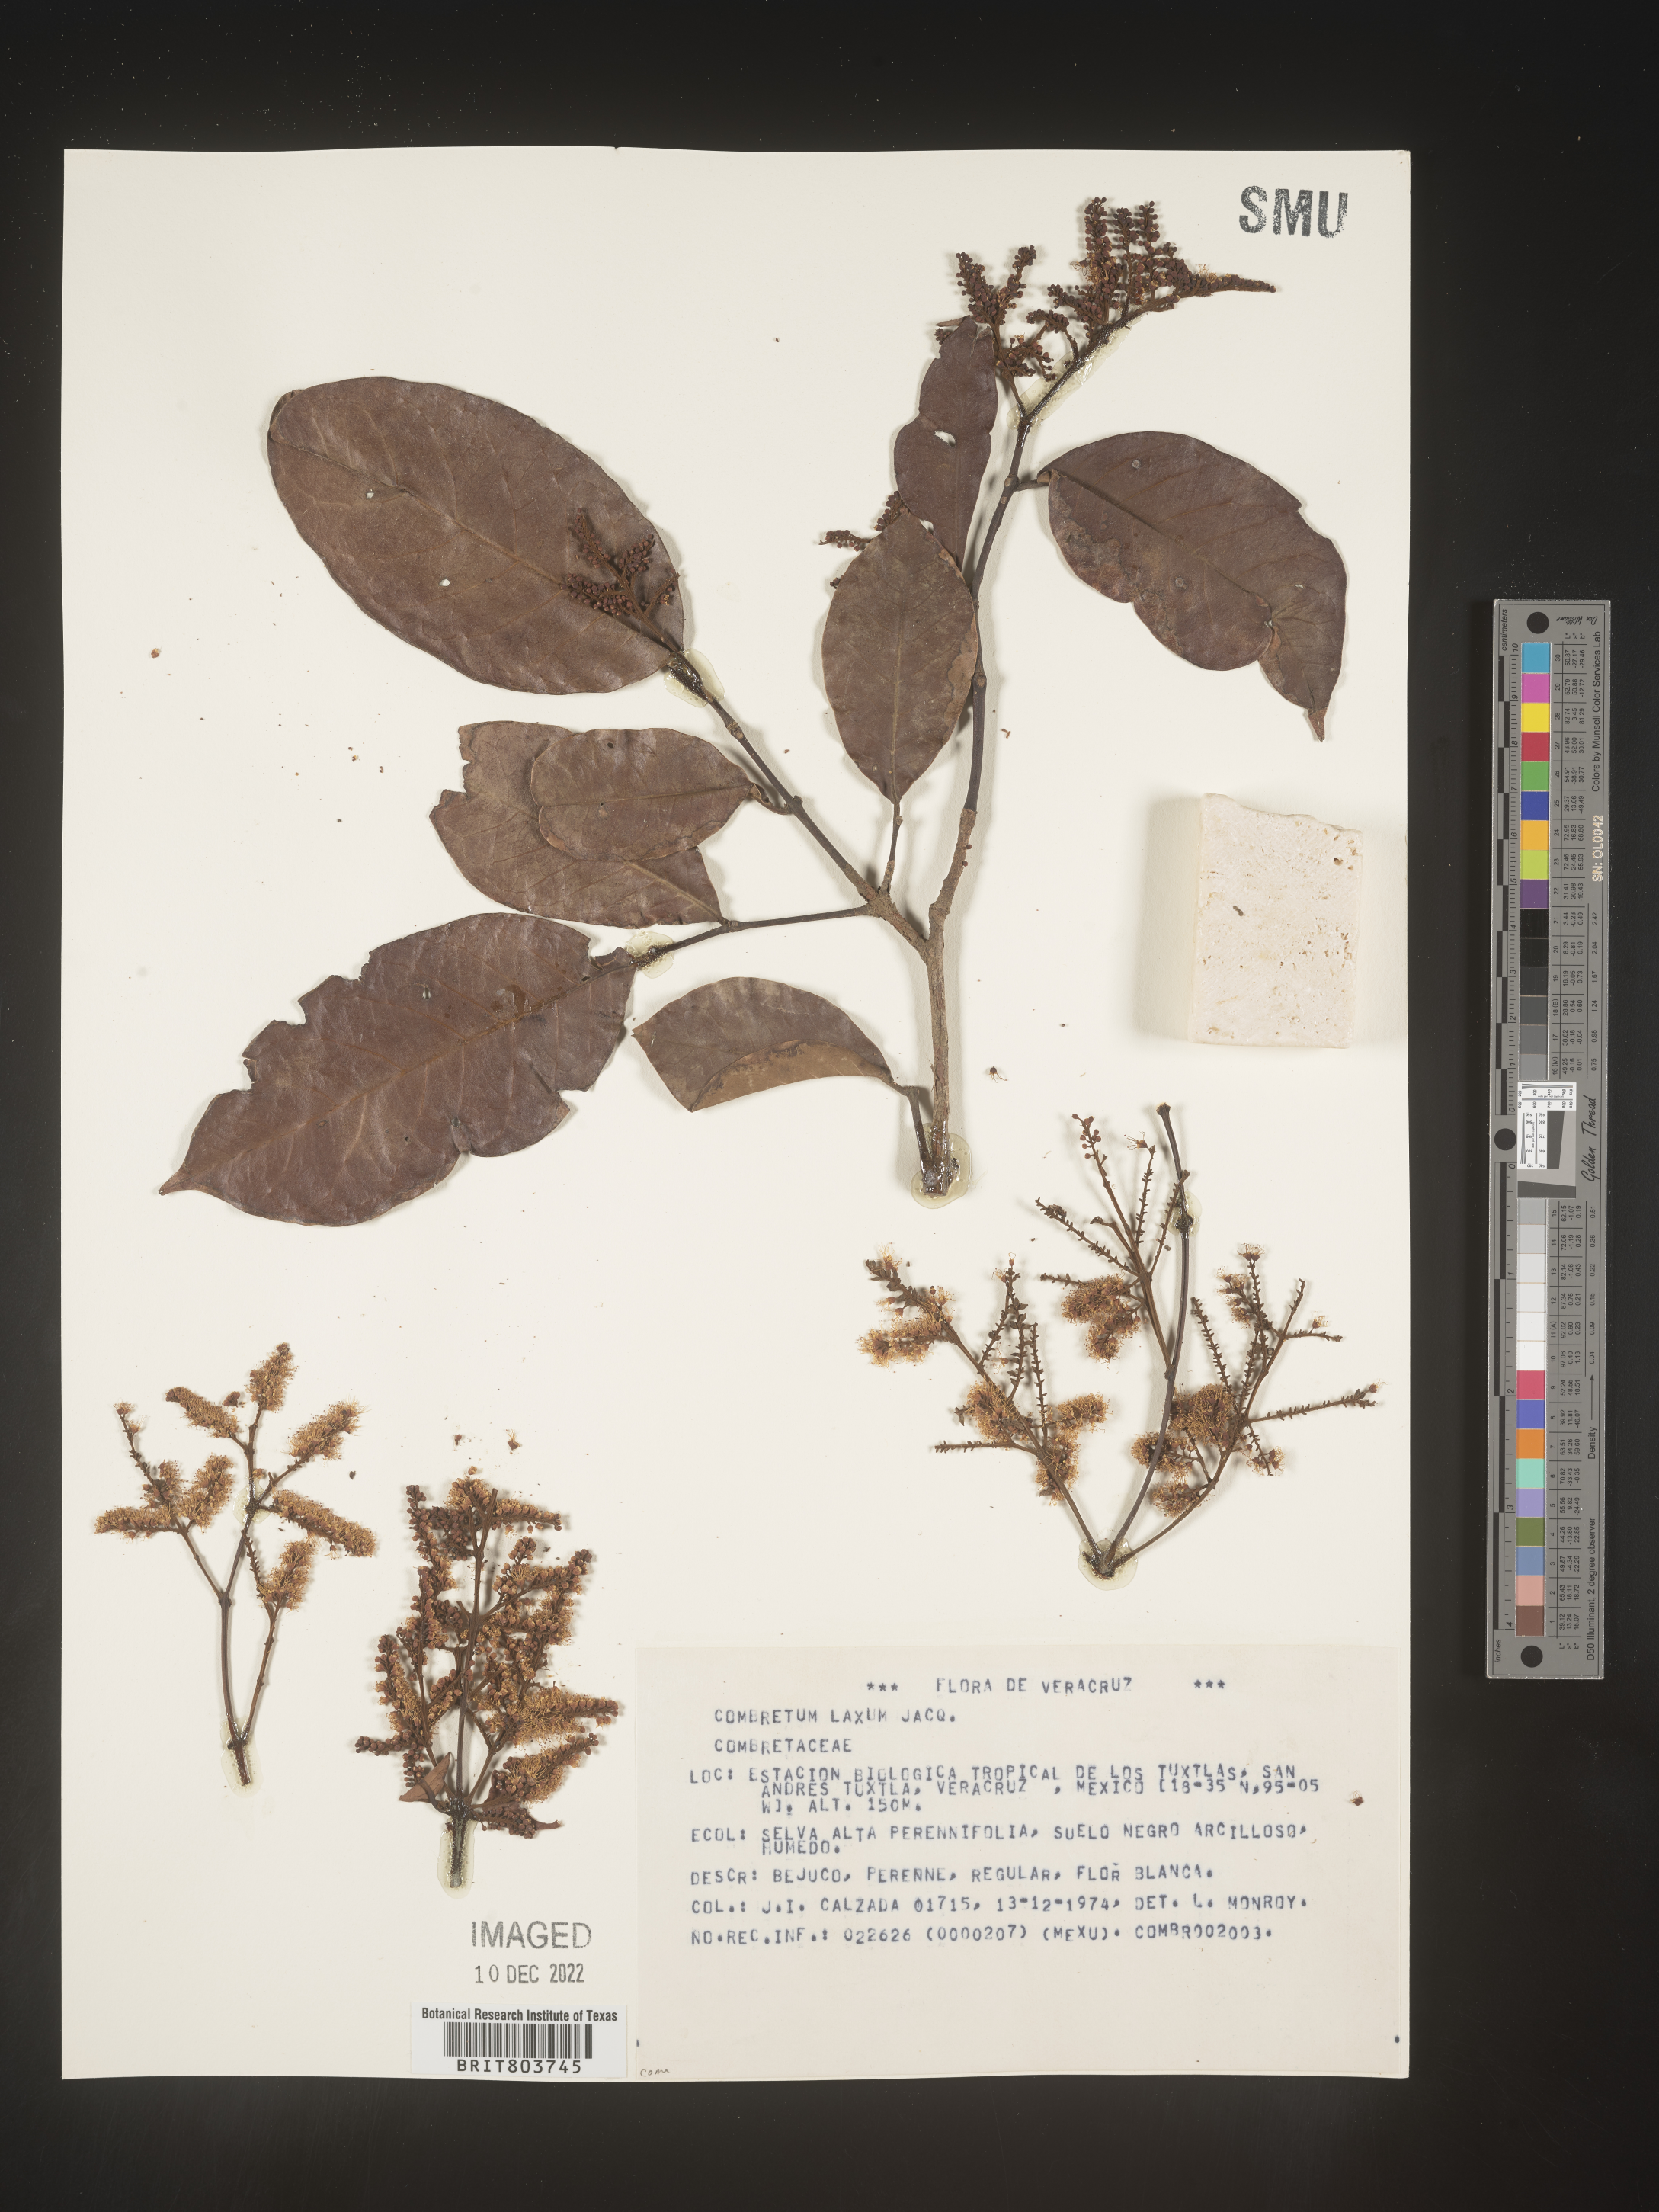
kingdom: Plantae
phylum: Tracheophyta
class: Magnoliopsida
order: Myrtales
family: Combretaceae
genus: Combretum
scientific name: Combretum
